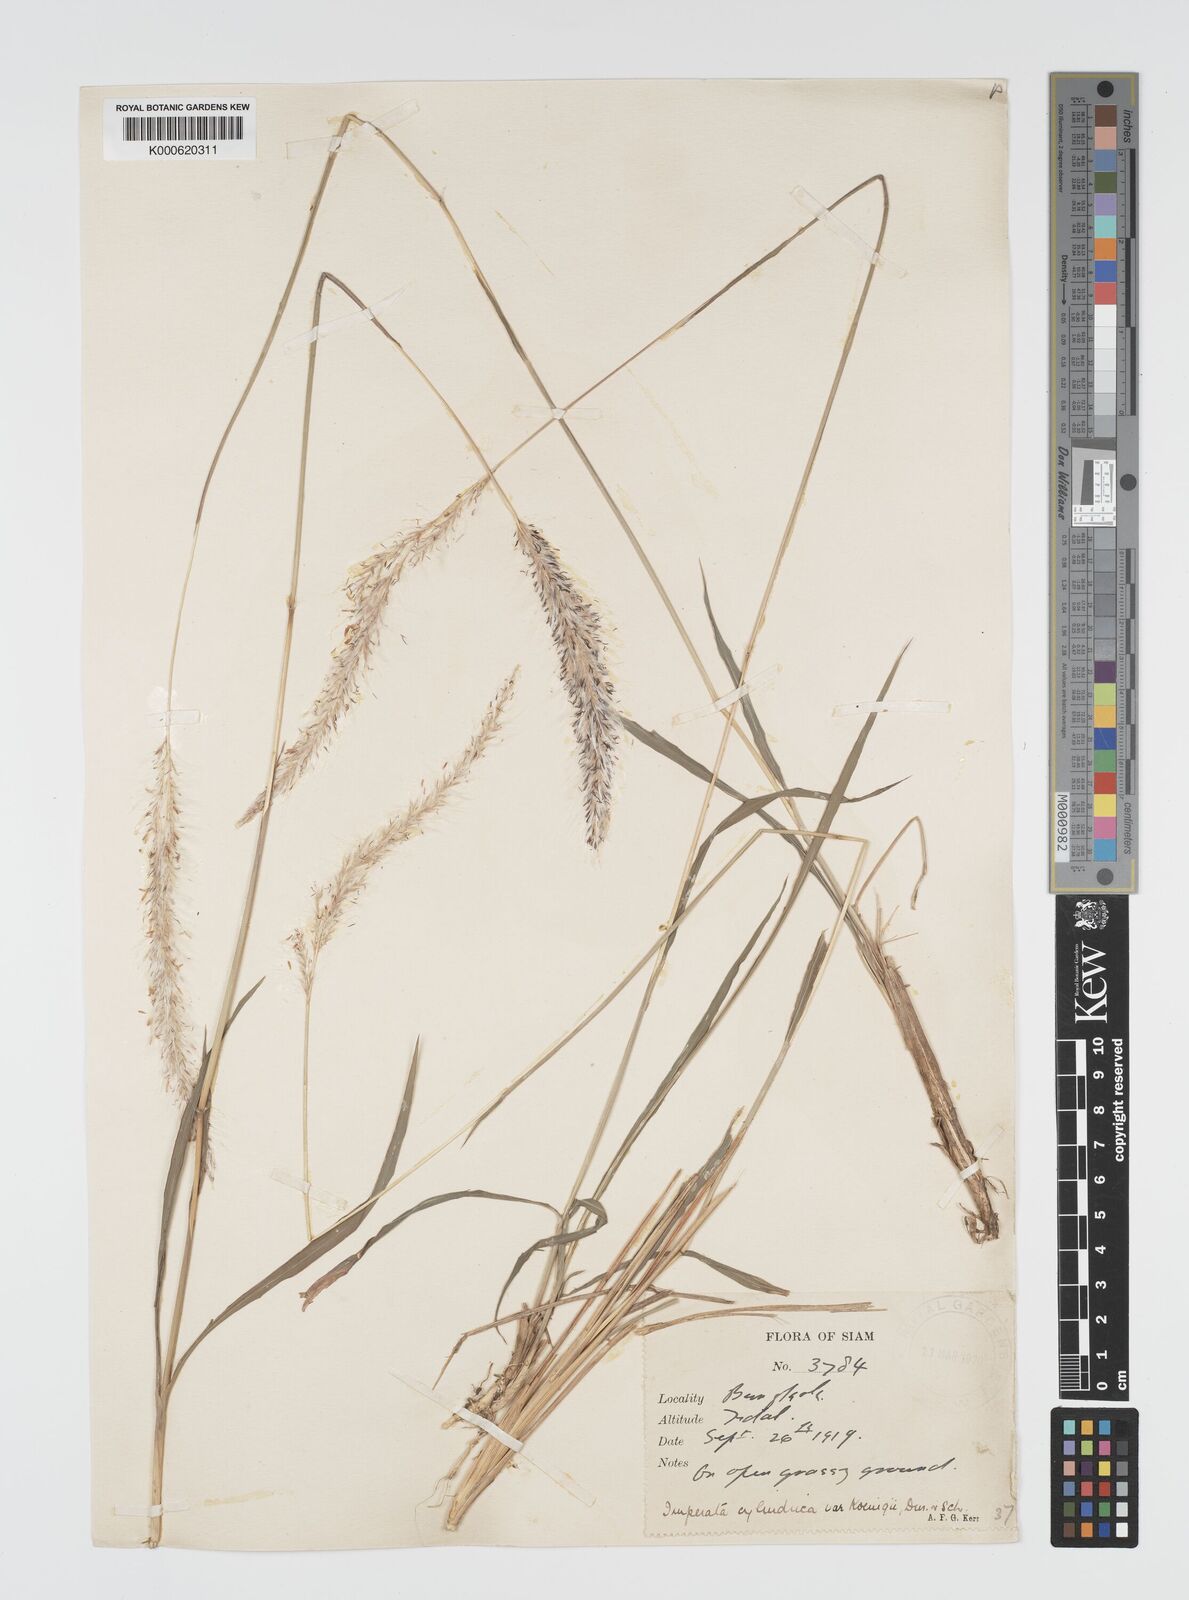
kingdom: Plantae
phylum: Tracheophyta
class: Liliopsida
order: Poales
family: Poaceae
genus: Imperata
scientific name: Imperata cylindrica
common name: Cogongrass
